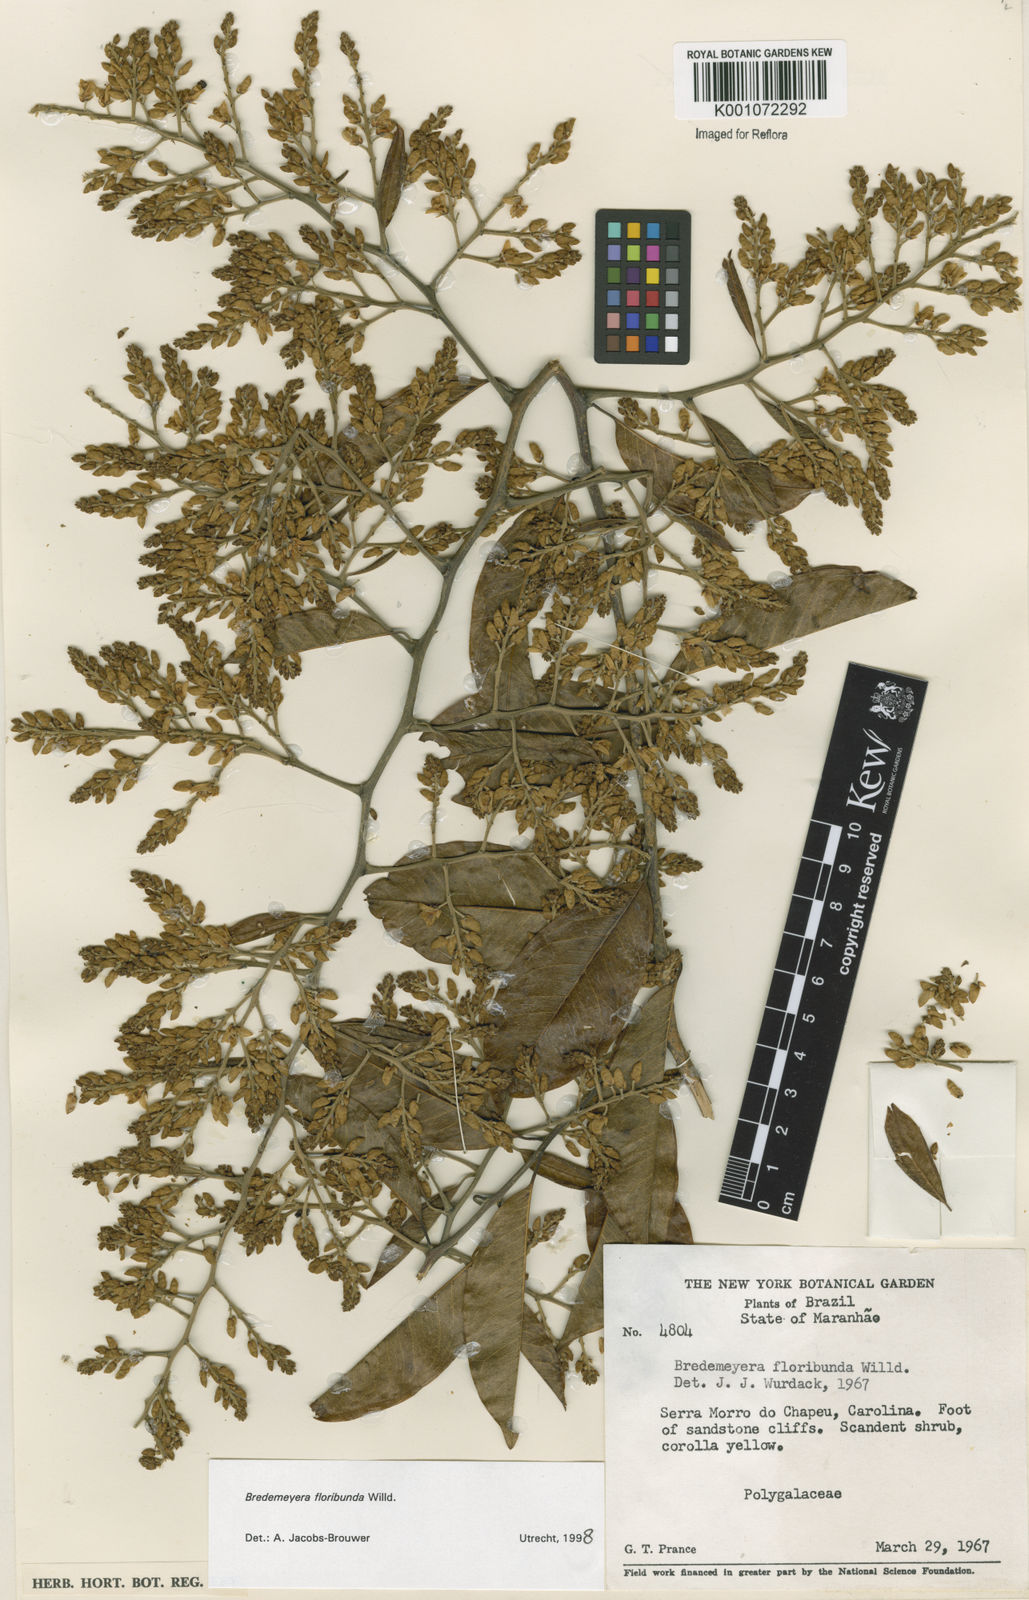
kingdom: Plantae
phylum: Tracheophyta
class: Magnoliopsida
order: Fabales
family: Polygalaceae
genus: Bredemeyera
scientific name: Bredemeyera floribunda
